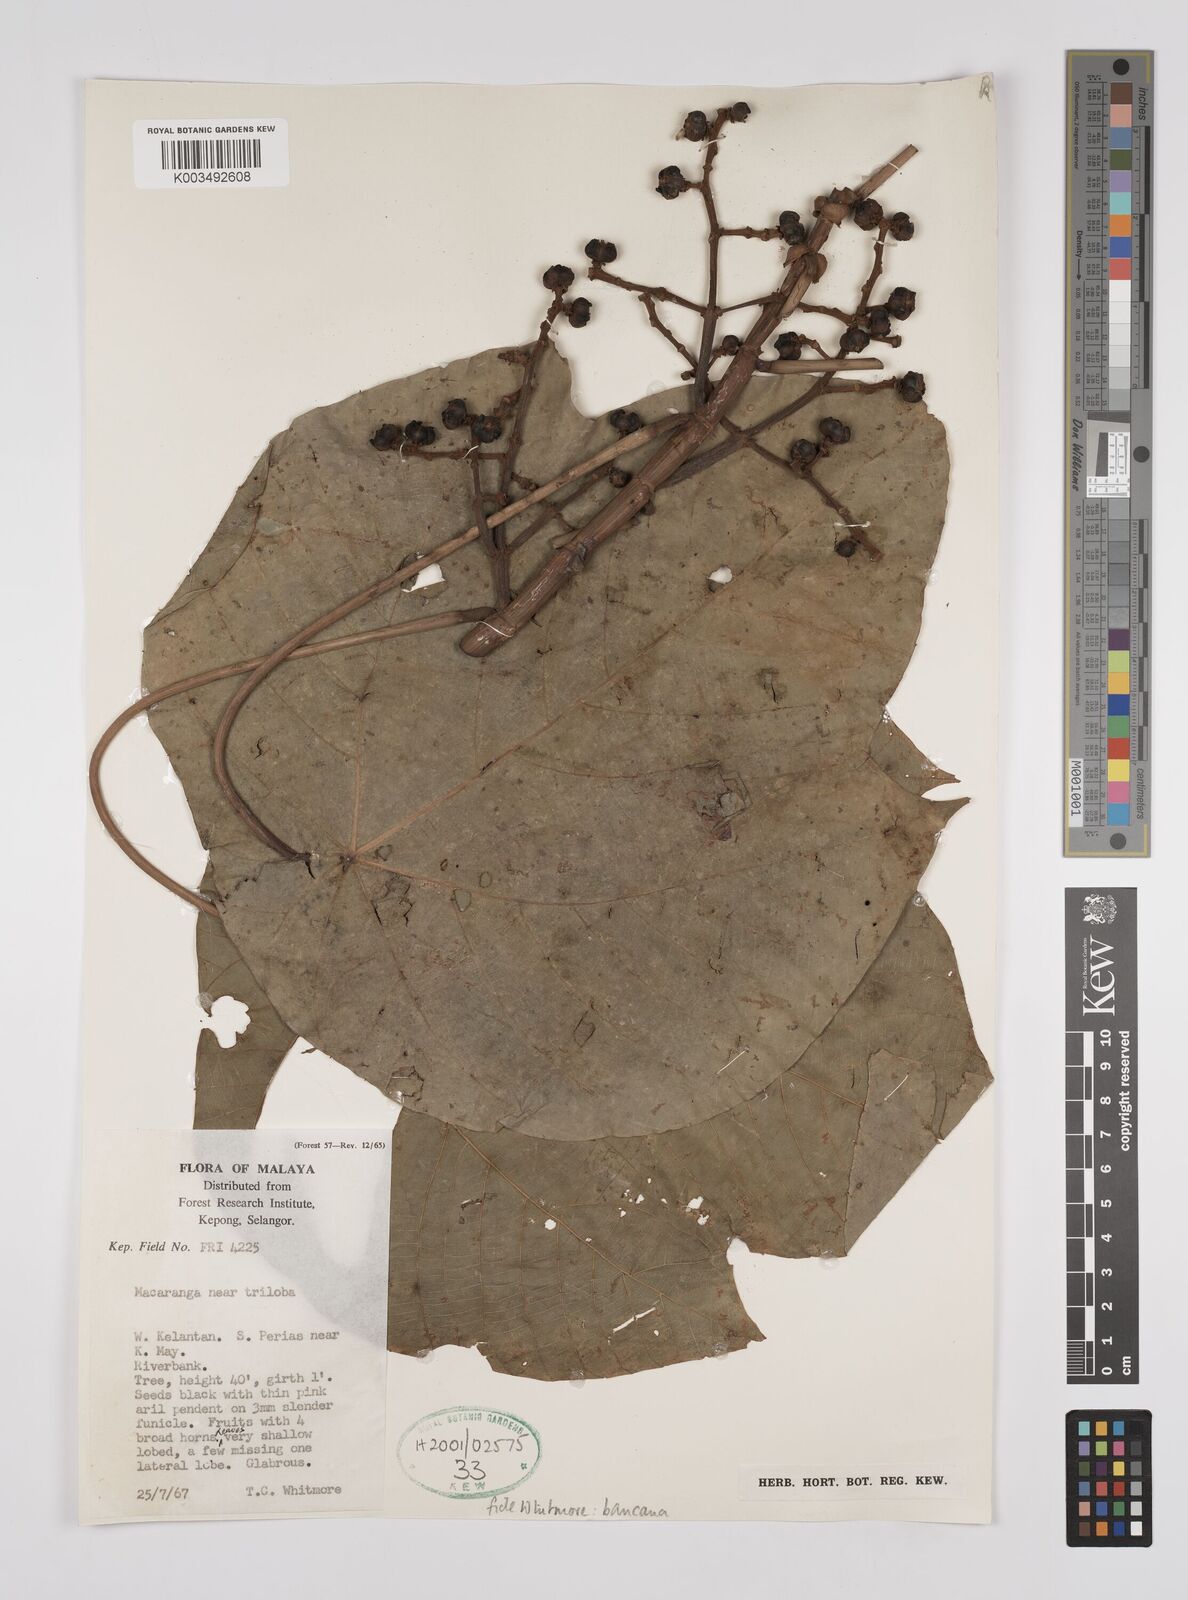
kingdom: Plantae
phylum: Tracheophyta
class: Magnoliopsida
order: Malpighiales
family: Euphorbiaceae
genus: Macaranga
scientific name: Macaranga bancana
